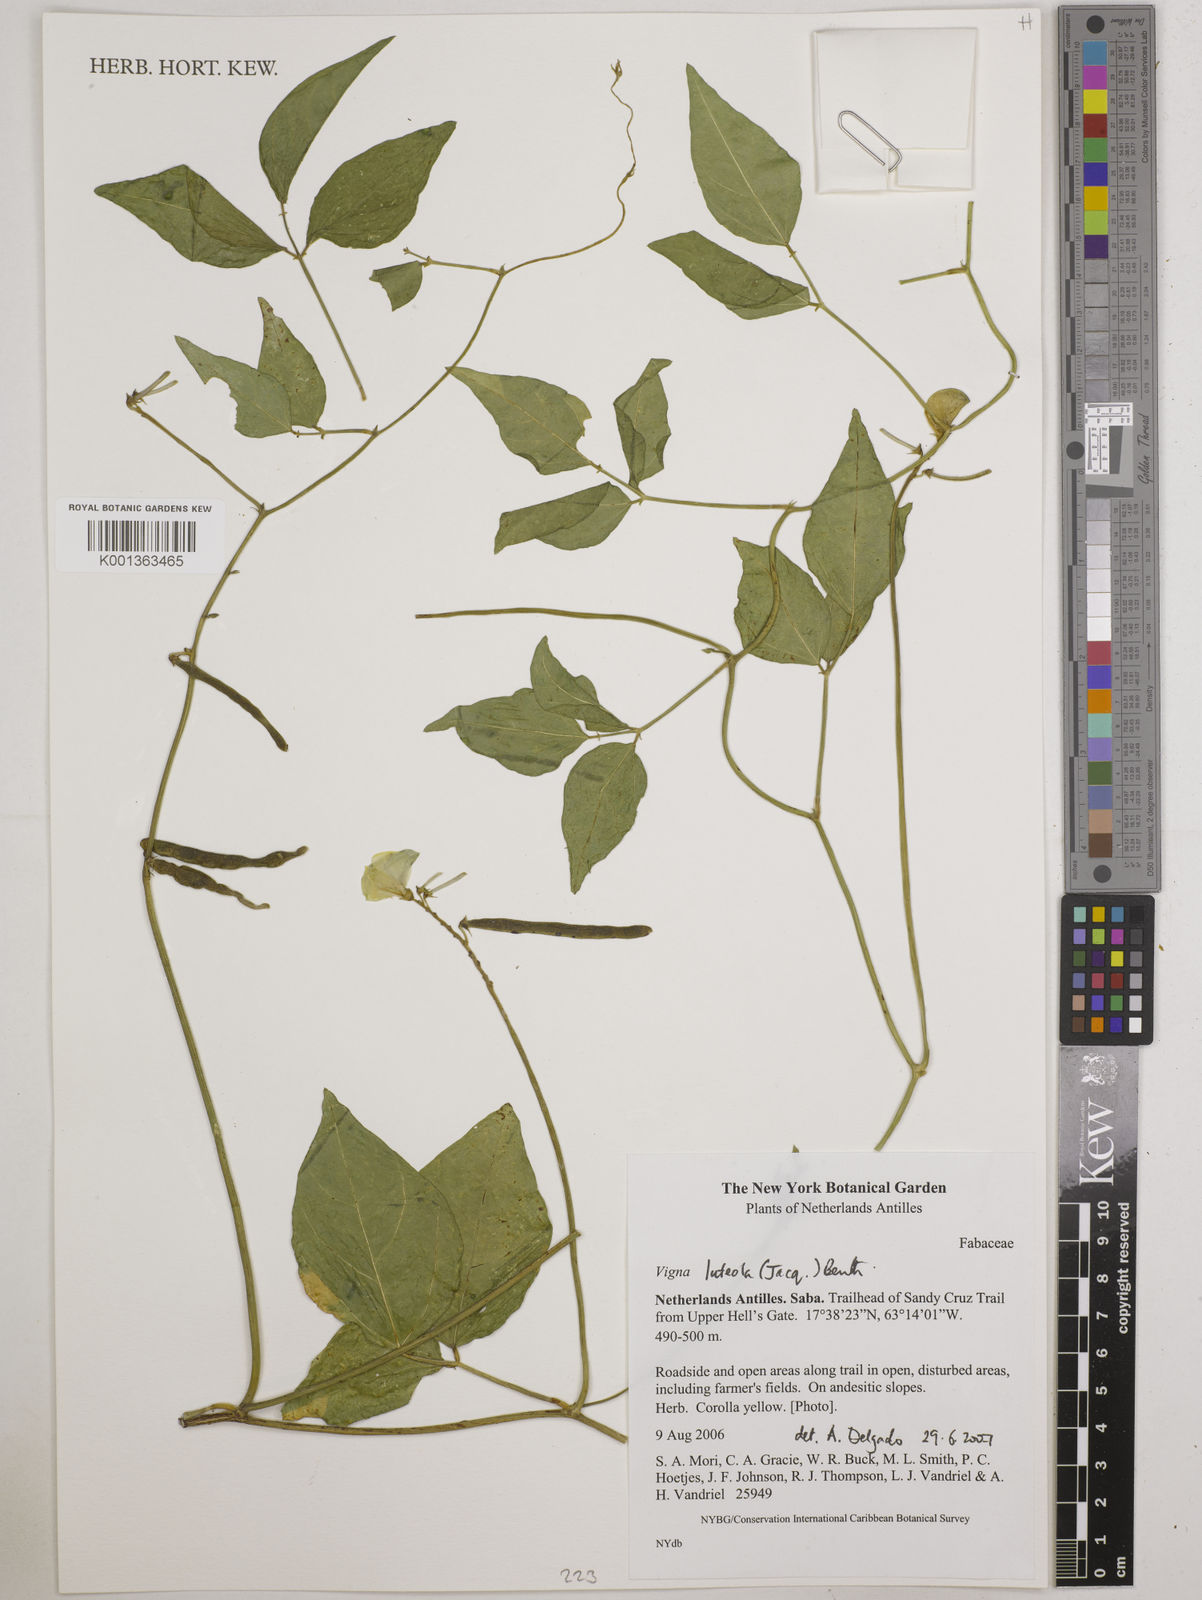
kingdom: Plantae
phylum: Tracheophyta
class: Magnoliopsida
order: Fabales
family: Fabaceae
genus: Vigna
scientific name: Vigna luteola
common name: Hairypod cowpea
